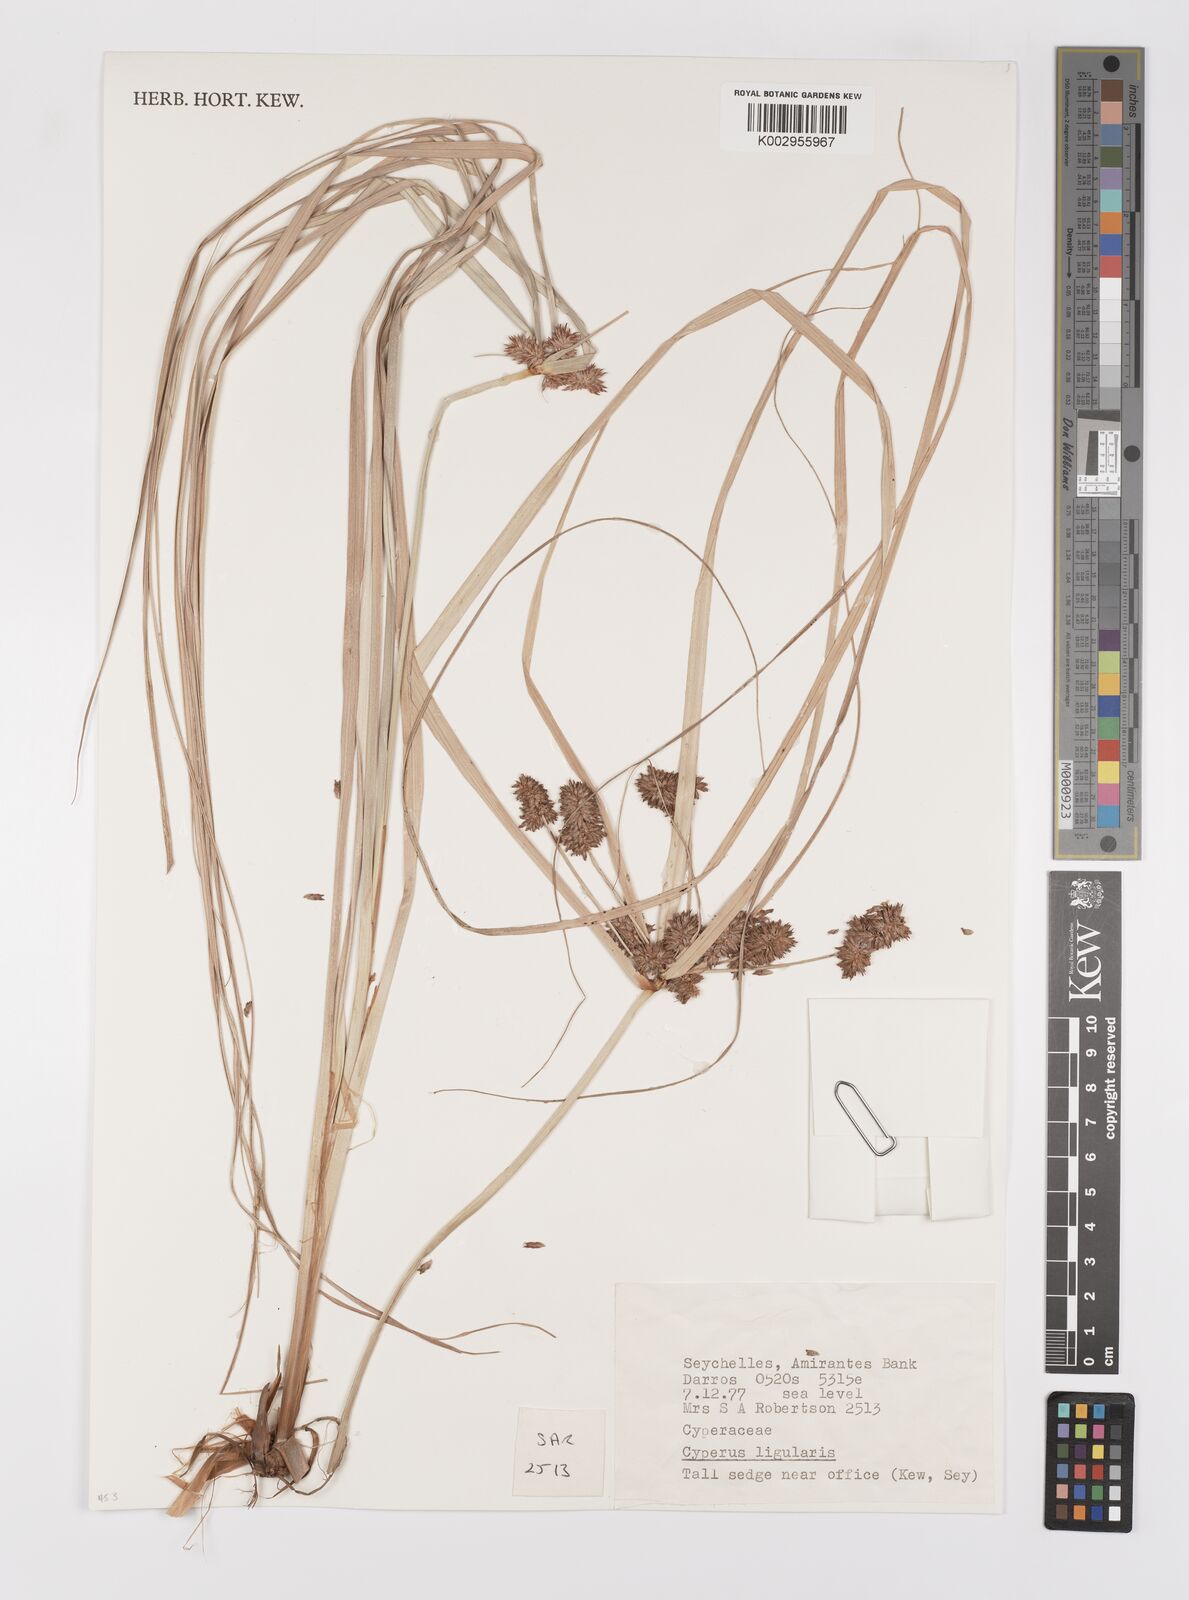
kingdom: Plantae
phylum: Tracheophyta
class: Liliopsida
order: Poales
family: Cyperaceae
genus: Cyperus
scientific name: Cyperus ligularis
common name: Swamp flat sedge
